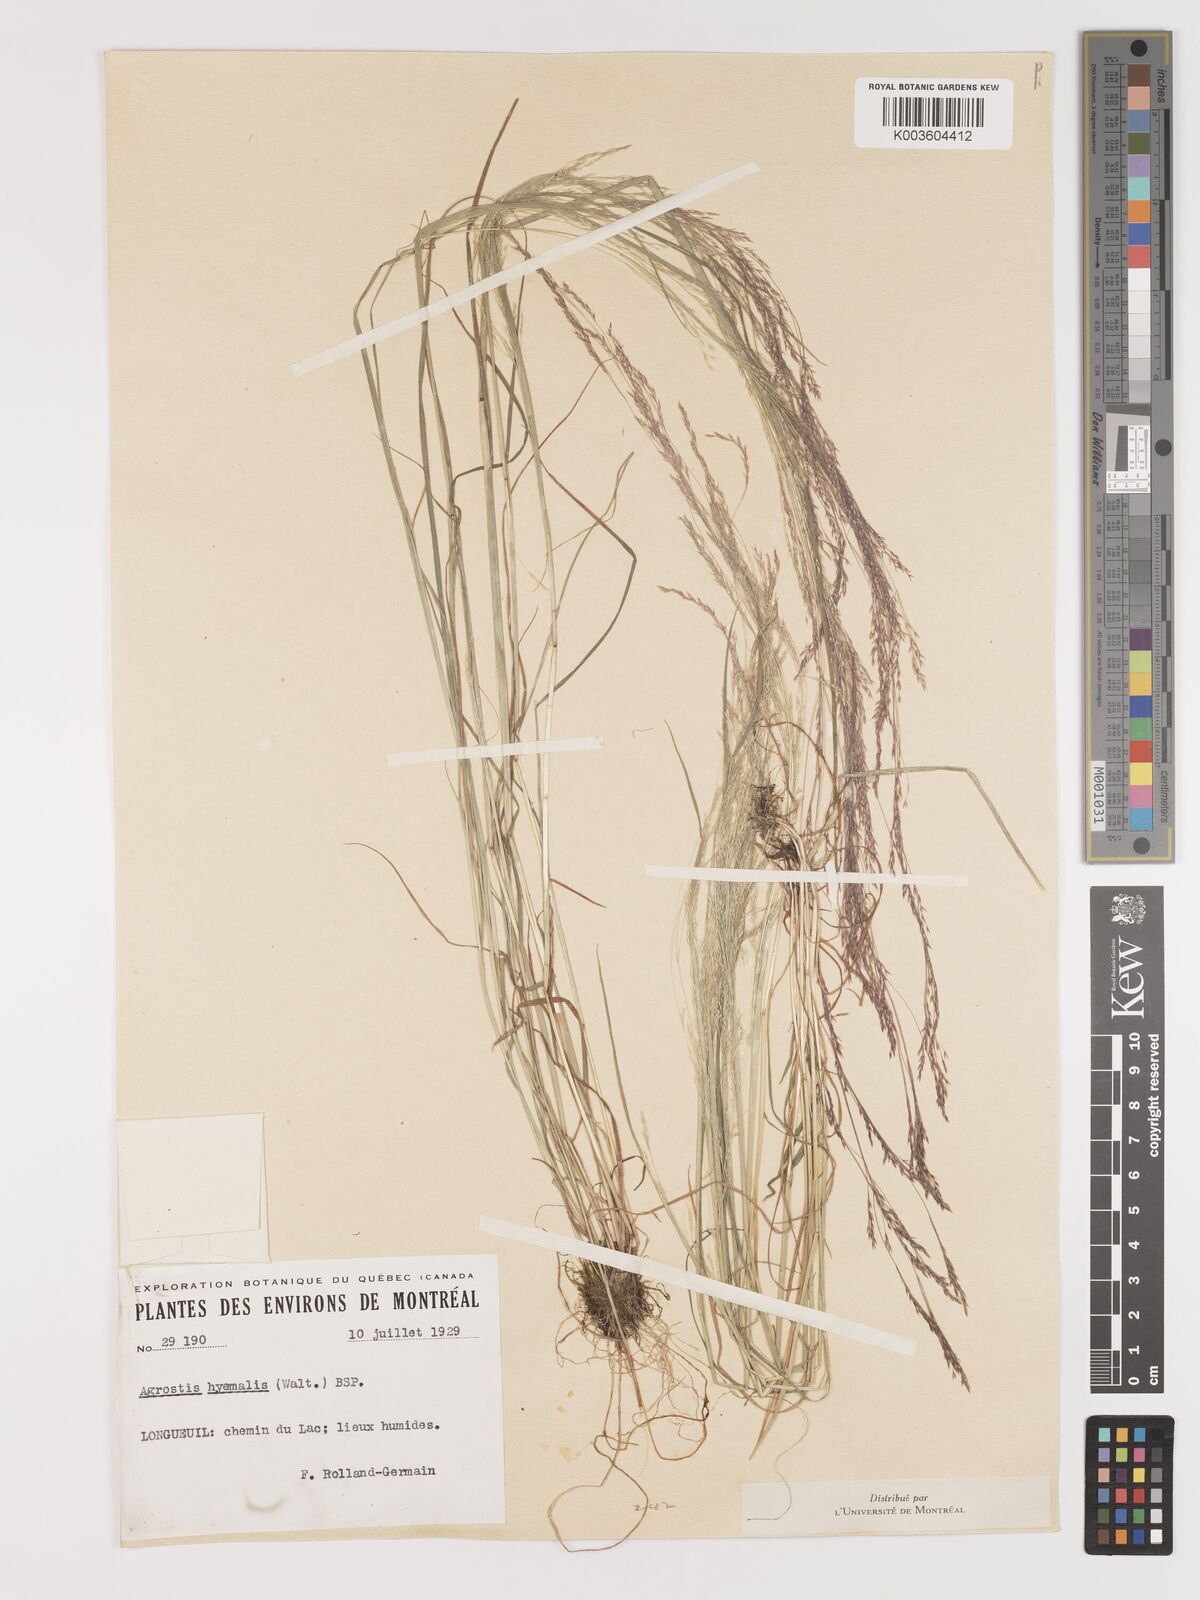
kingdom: Plantae
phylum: Tracheophyta
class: Liliopsida
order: Poales
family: Poaceae
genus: Agrostis
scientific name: Agrostis hyemalis
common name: Small bent
